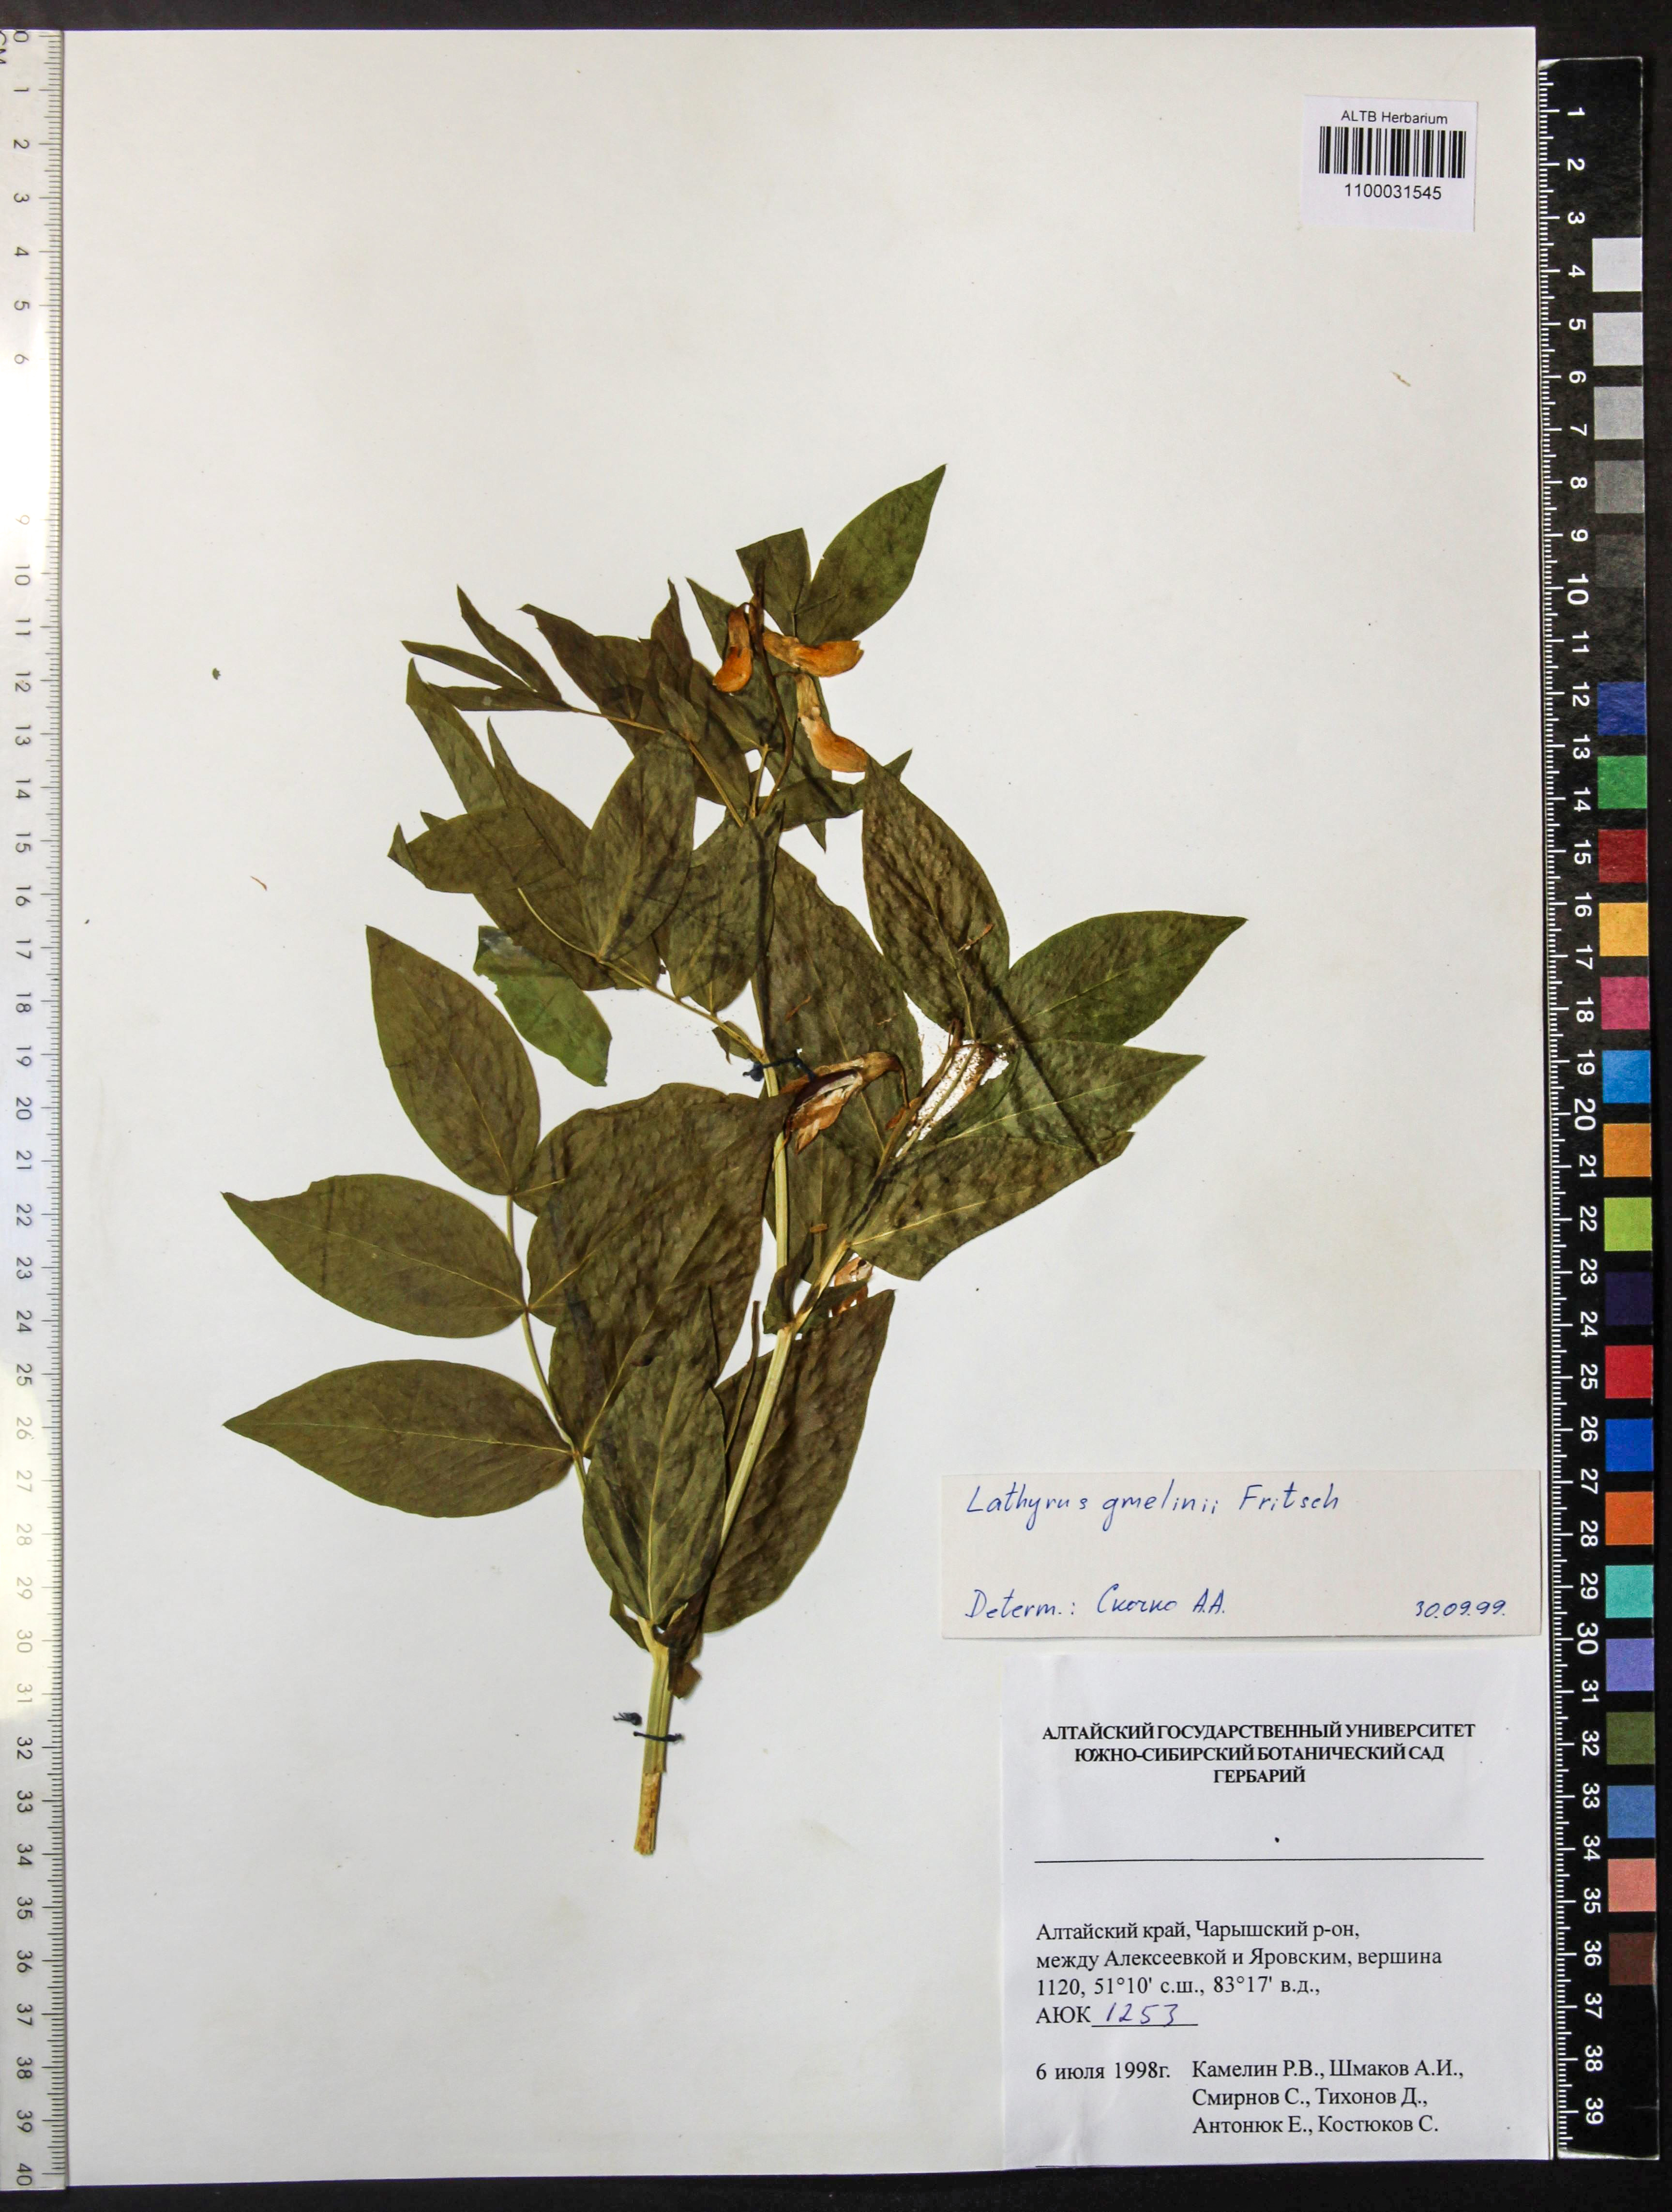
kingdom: Plantae
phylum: Tracheophyta
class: Magnoliopsida
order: Fabales
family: Fabaceae
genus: Lathyrus
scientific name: Lathyrus gmelinii
